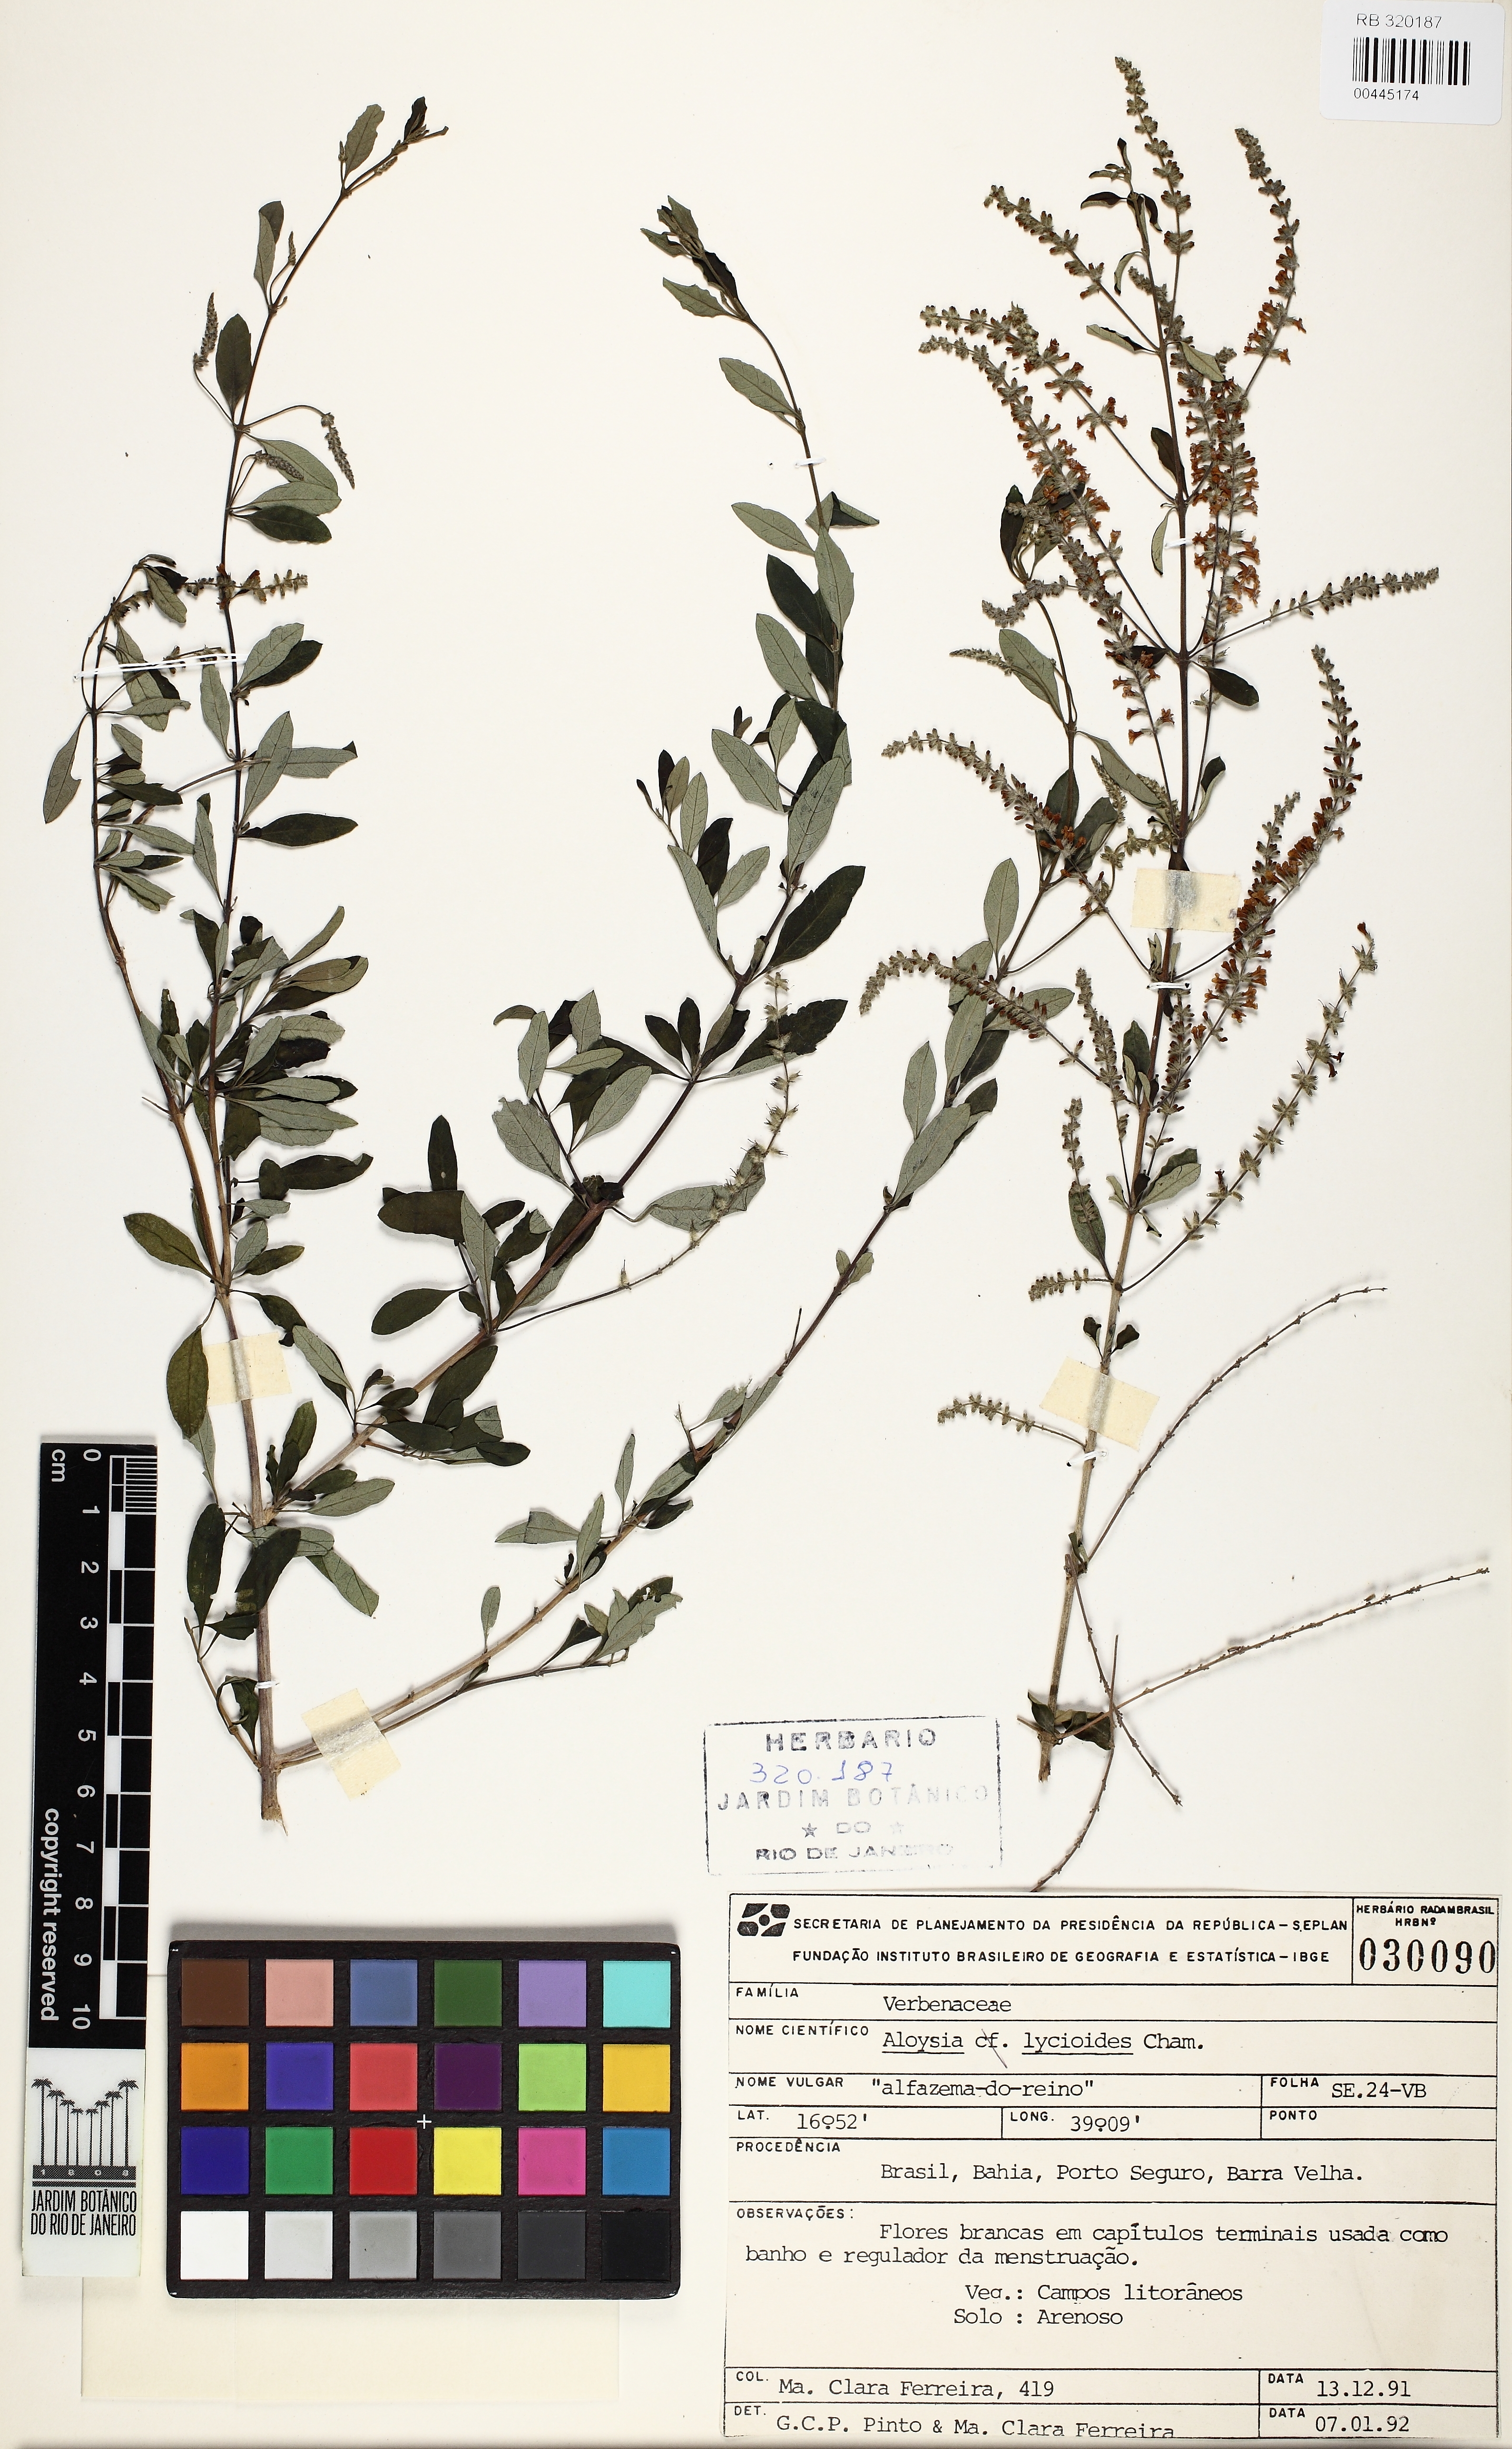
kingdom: Plantae
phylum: Tracheophyta
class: Magnoliopsida
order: Lamiales
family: Verbenaceae
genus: Aloysia
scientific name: Aloysia gratissima
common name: Common bee-brush
